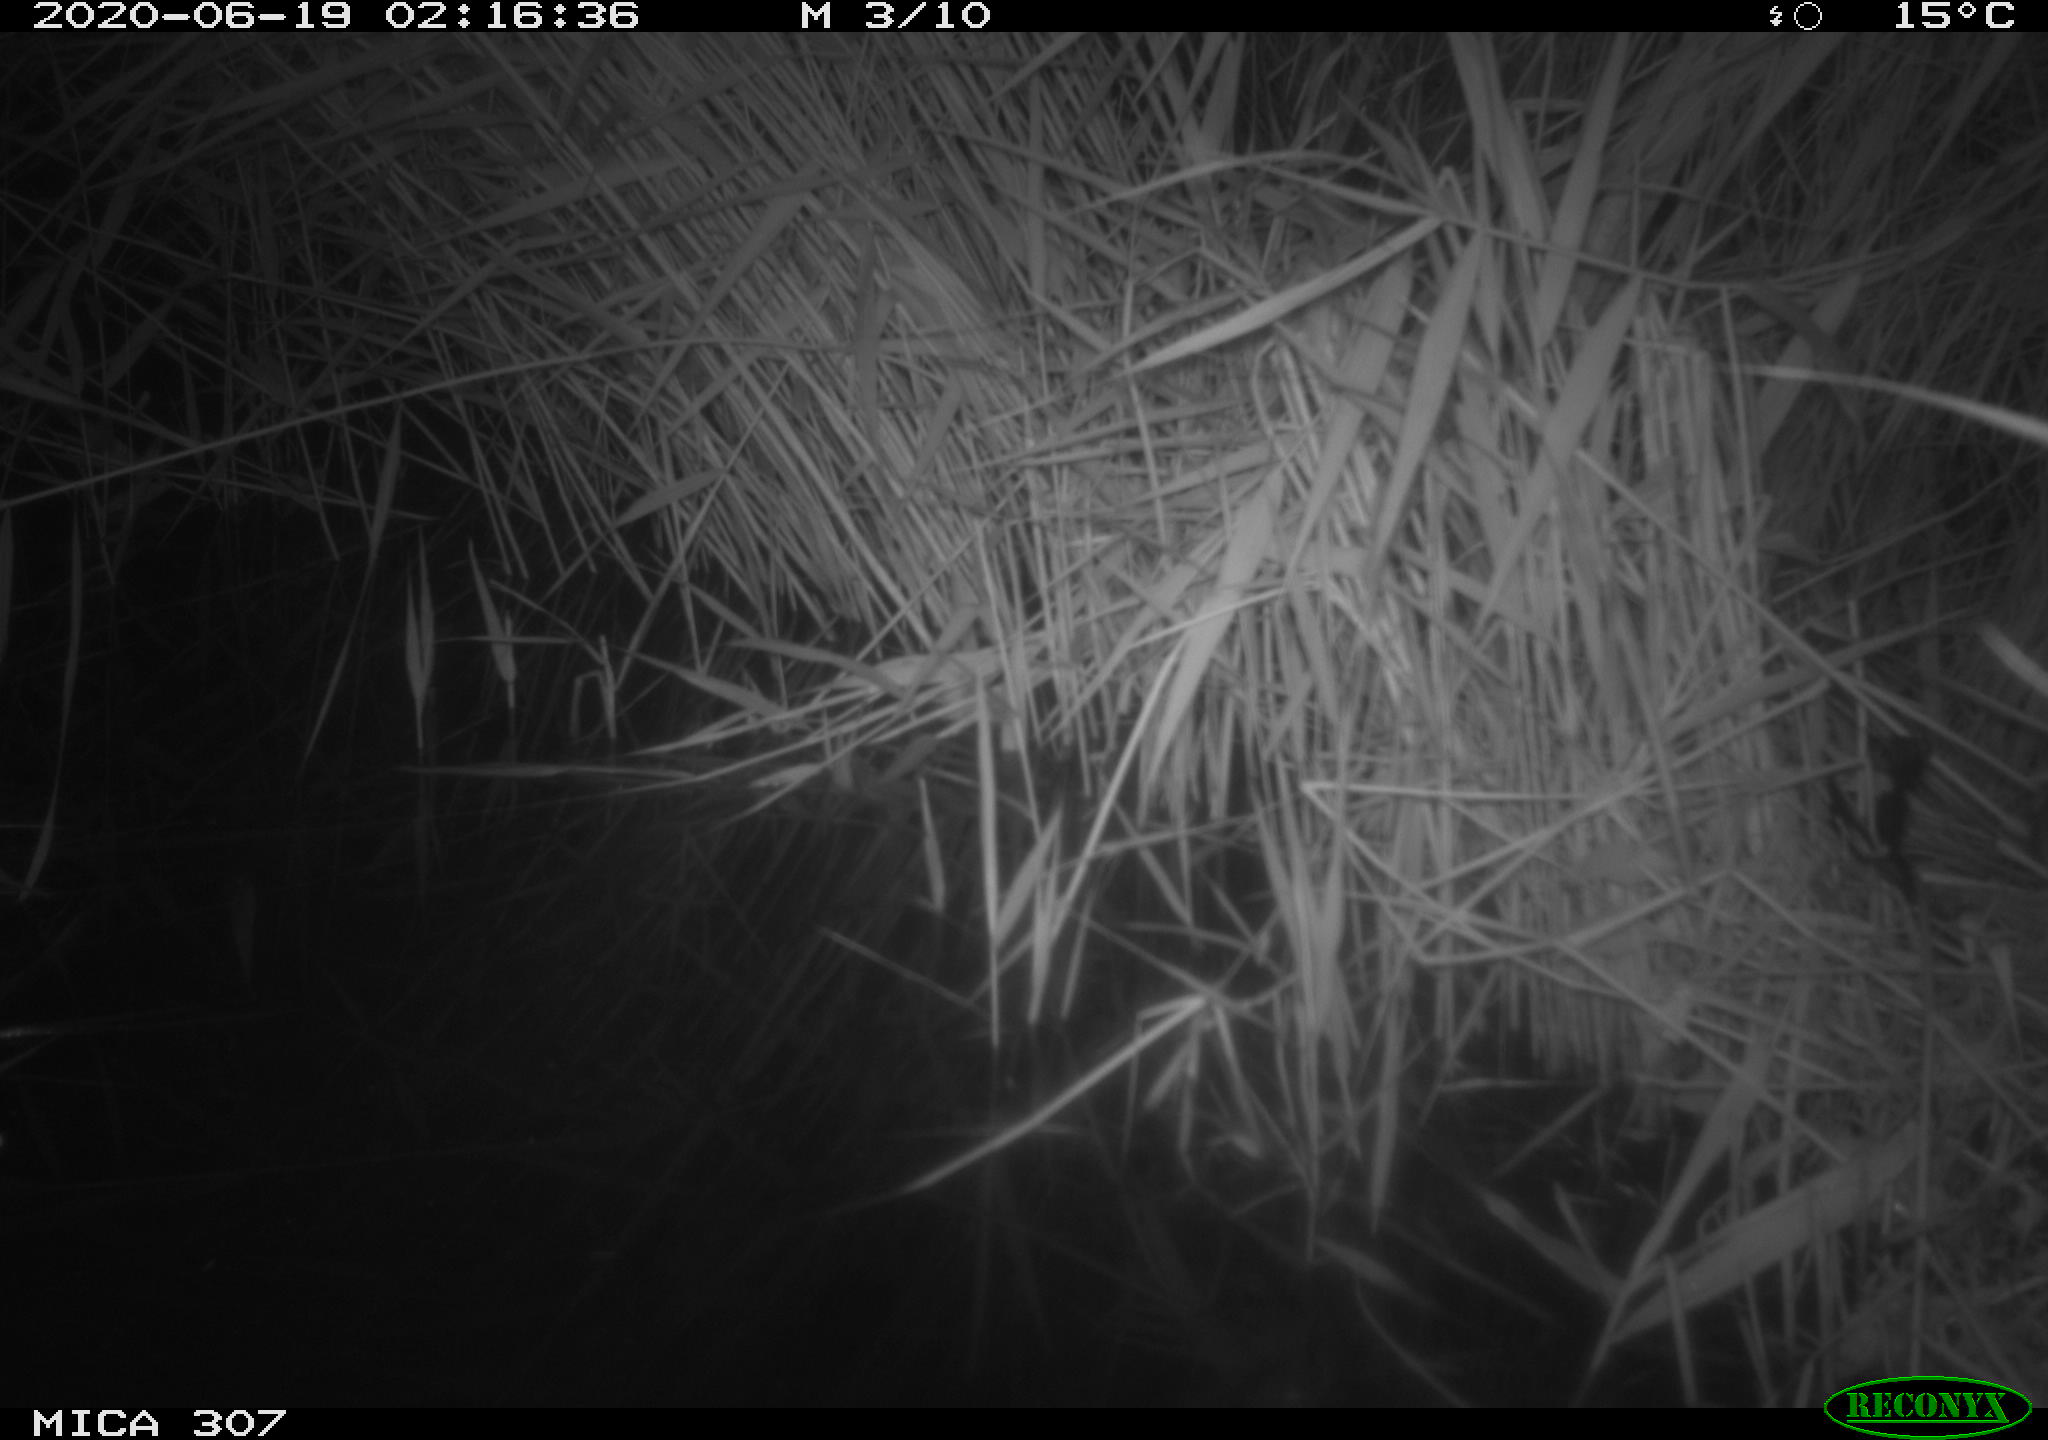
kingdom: Animalia
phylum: Chordata
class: Mammalia
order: Rodentia
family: Muridae
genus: Rattus
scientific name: Rattus norvegicus
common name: Brown rat
